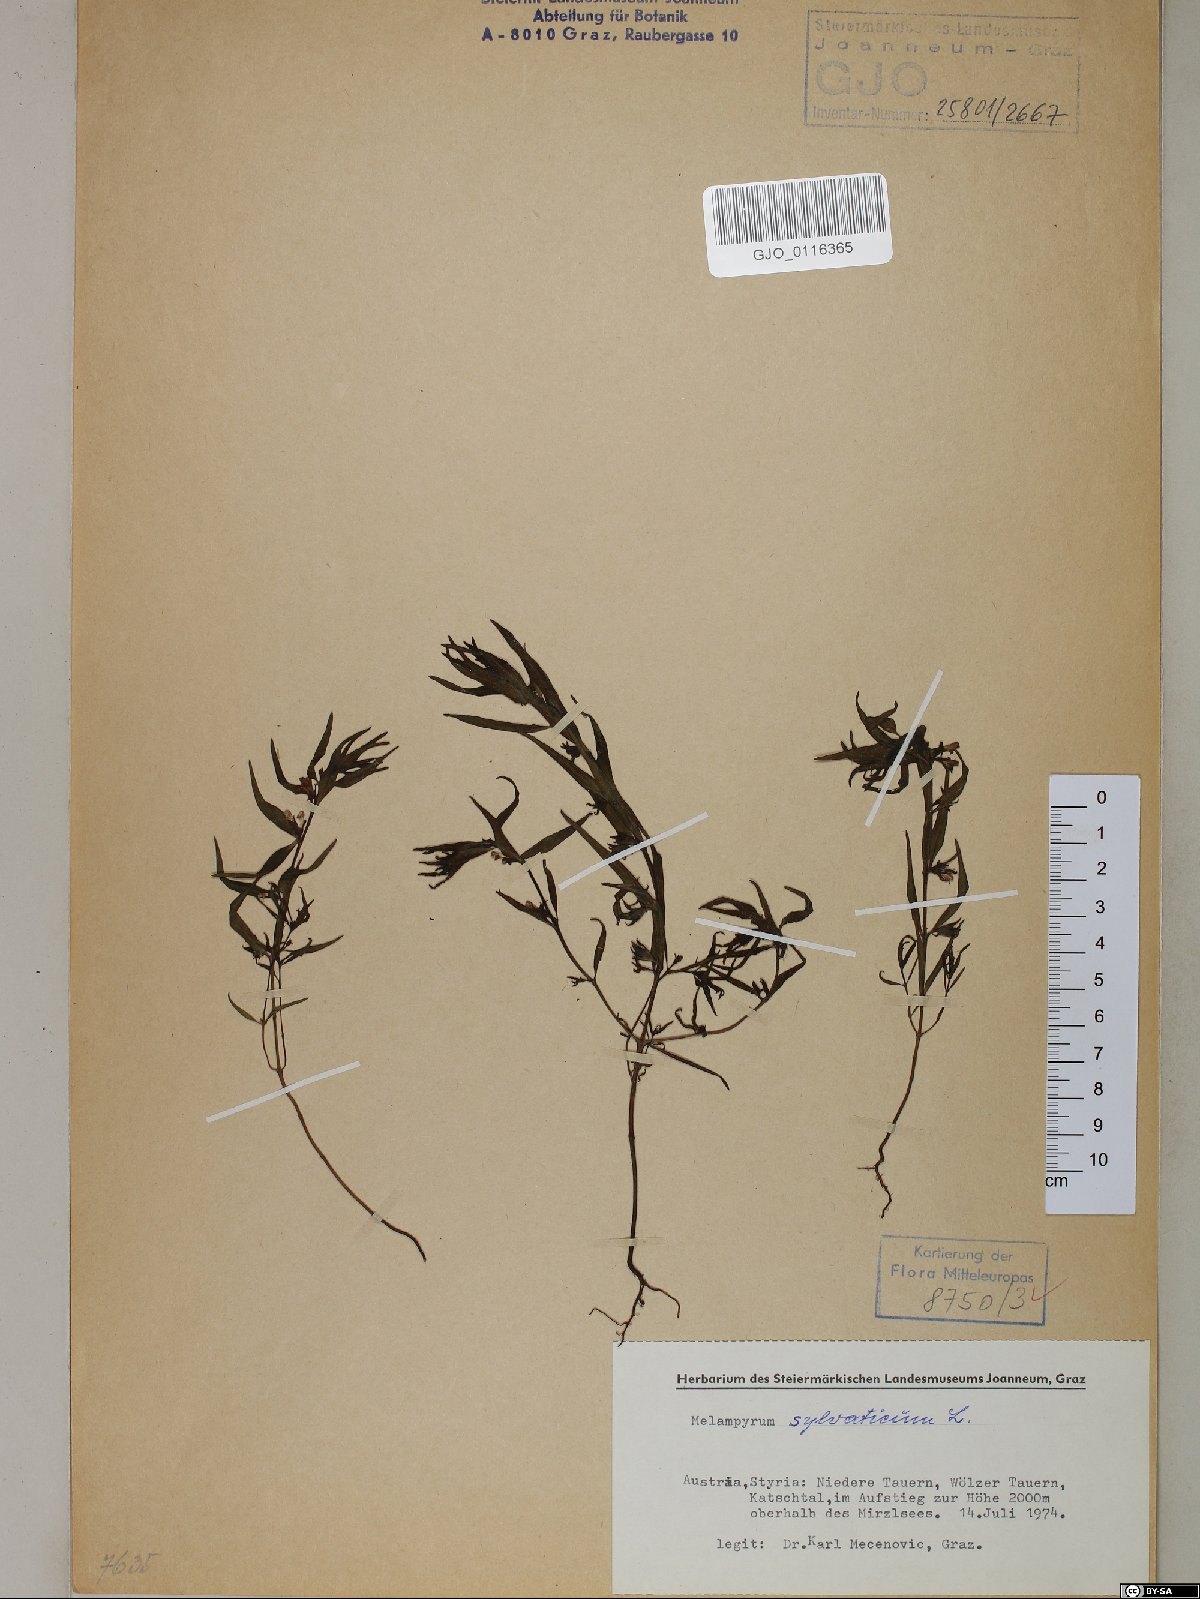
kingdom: Plantae
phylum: Tracheophyta
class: Magnoliopsida
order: Lamiales
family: Orobanchaceae
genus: Melampyrum
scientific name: Melampyrum sylvaticum
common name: Small cow-wheat
